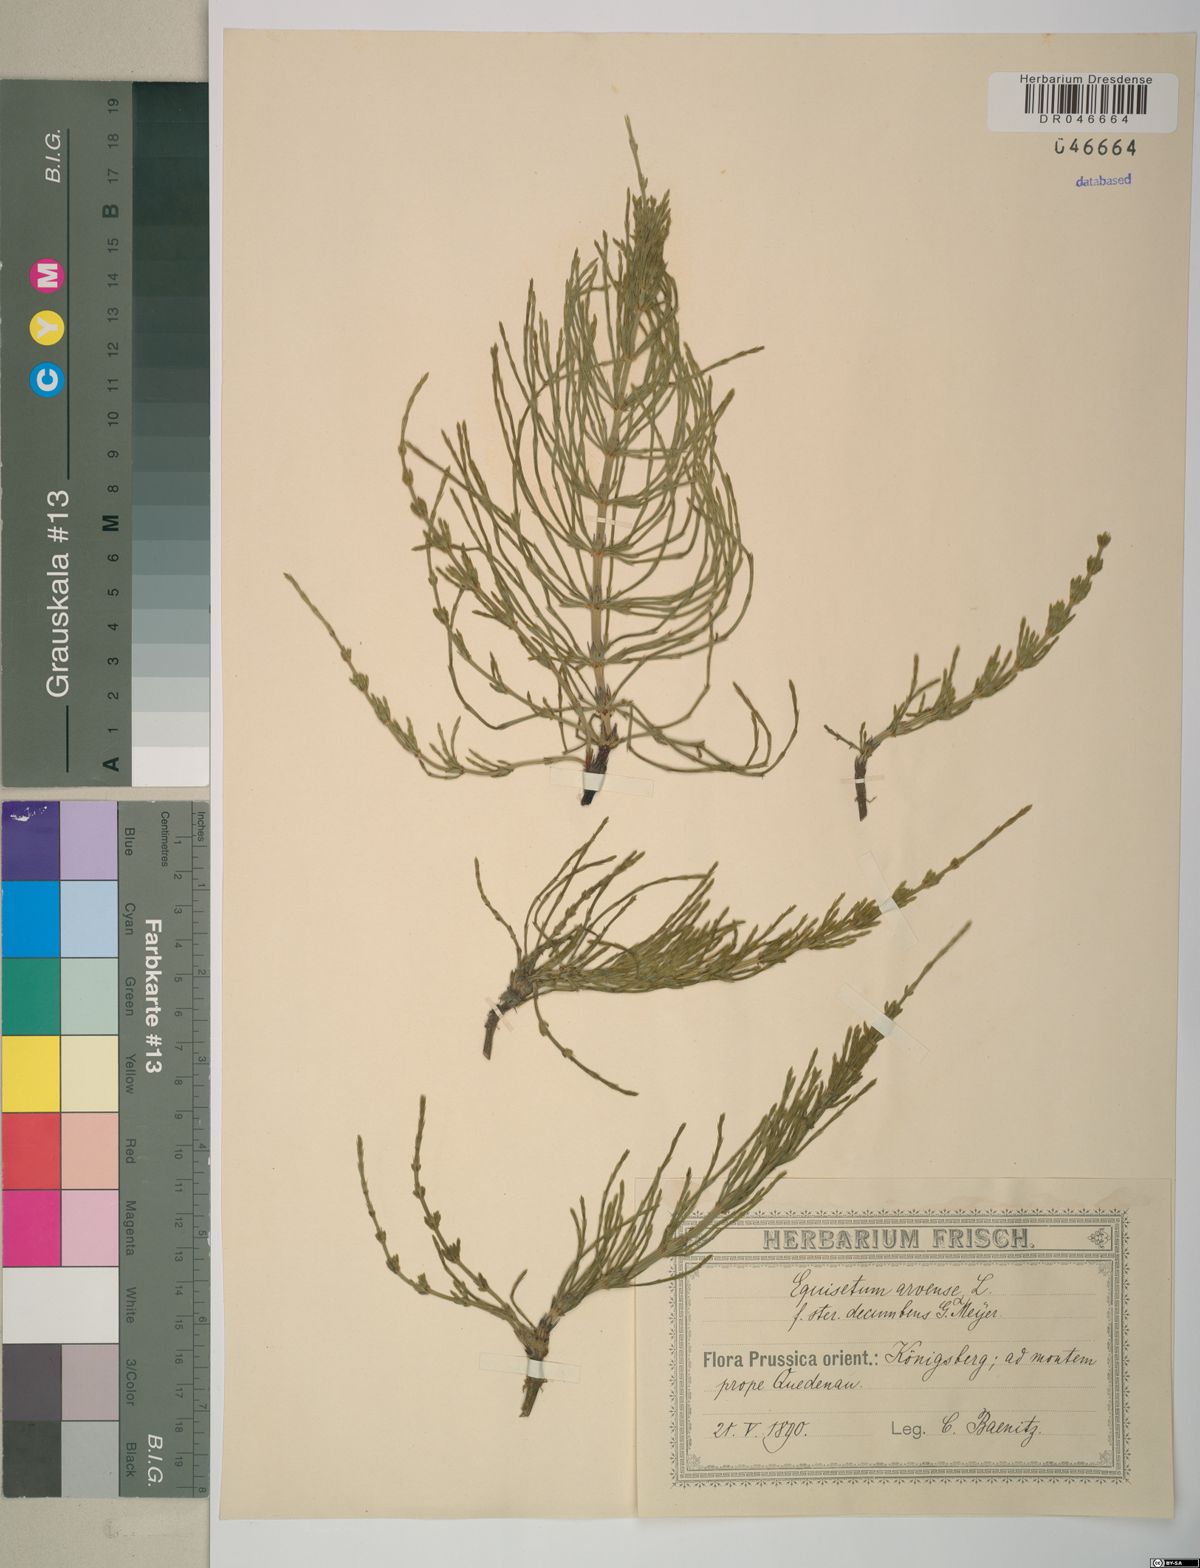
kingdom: Plantae
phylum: Tracheophyta
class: Polypodiopsida
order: Equisetales
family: Equisetaceae
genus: Equisetum
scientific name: Equisetum arvense
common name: Field horsetail
